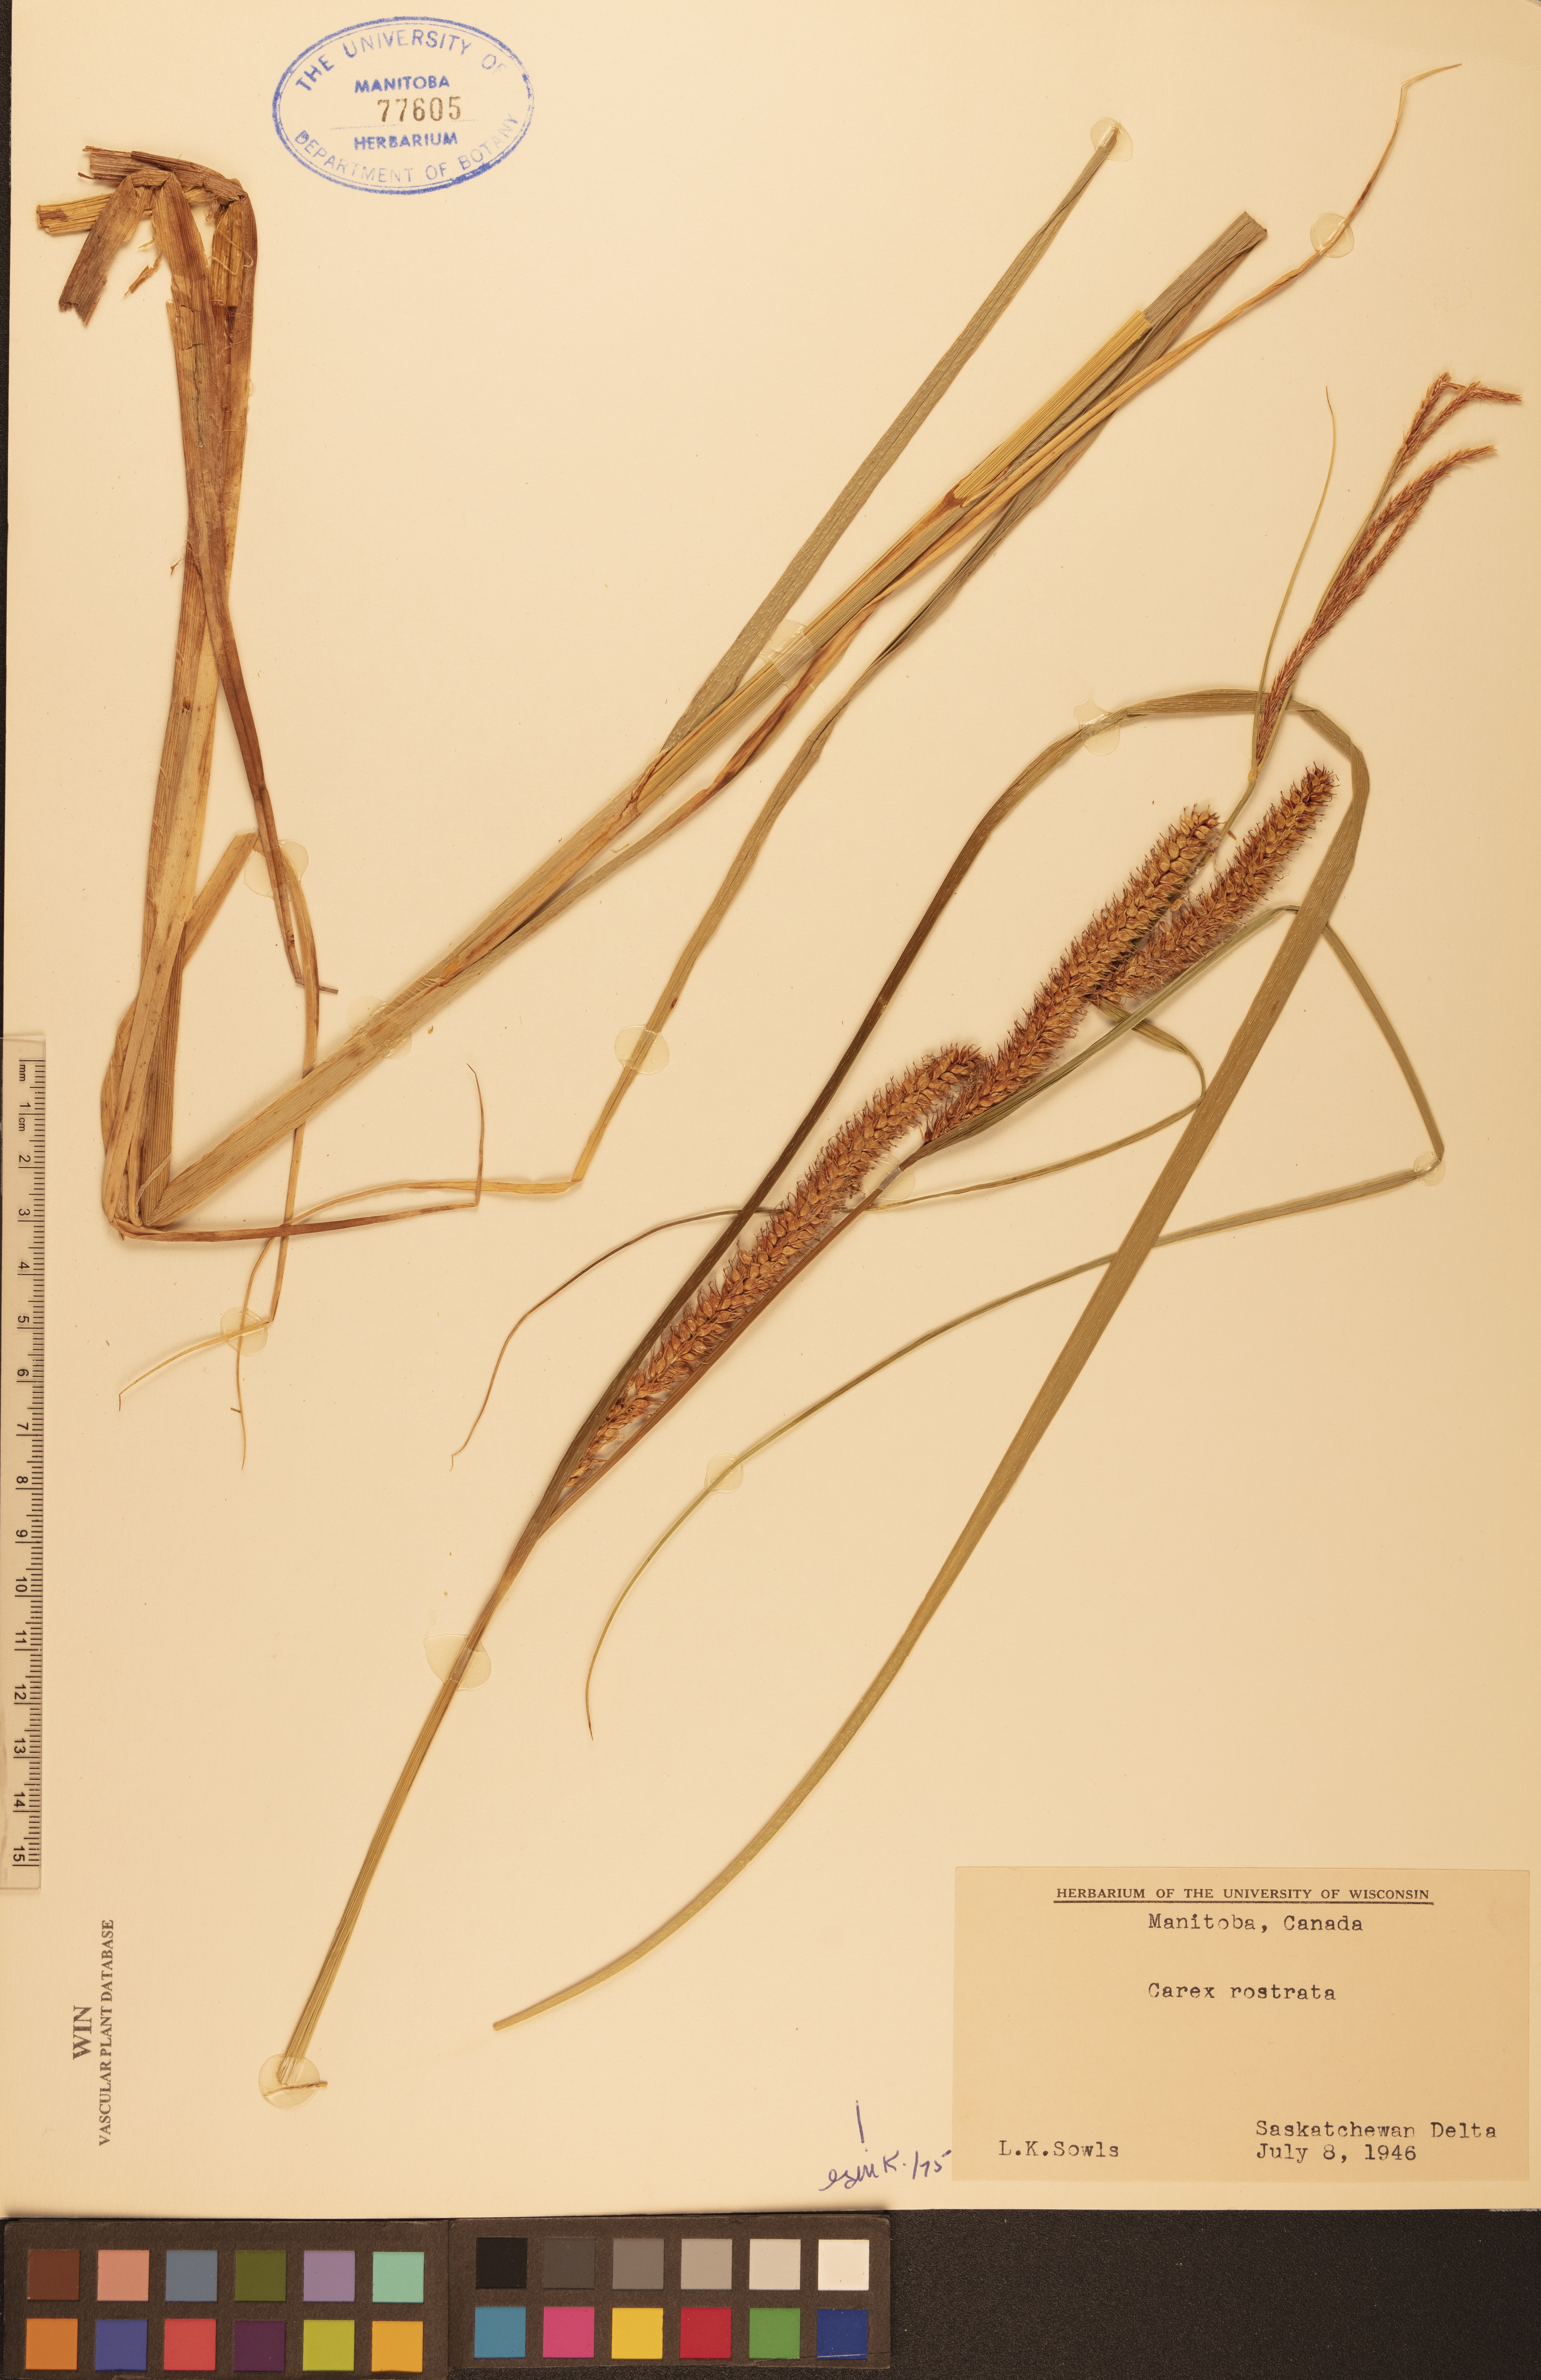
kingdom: Plantae
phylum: Tracheophyta
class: Liliopsida
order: Poales
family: Cyperaceae
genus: Carex
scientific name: Carex rostrata
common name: Bottle sedge
